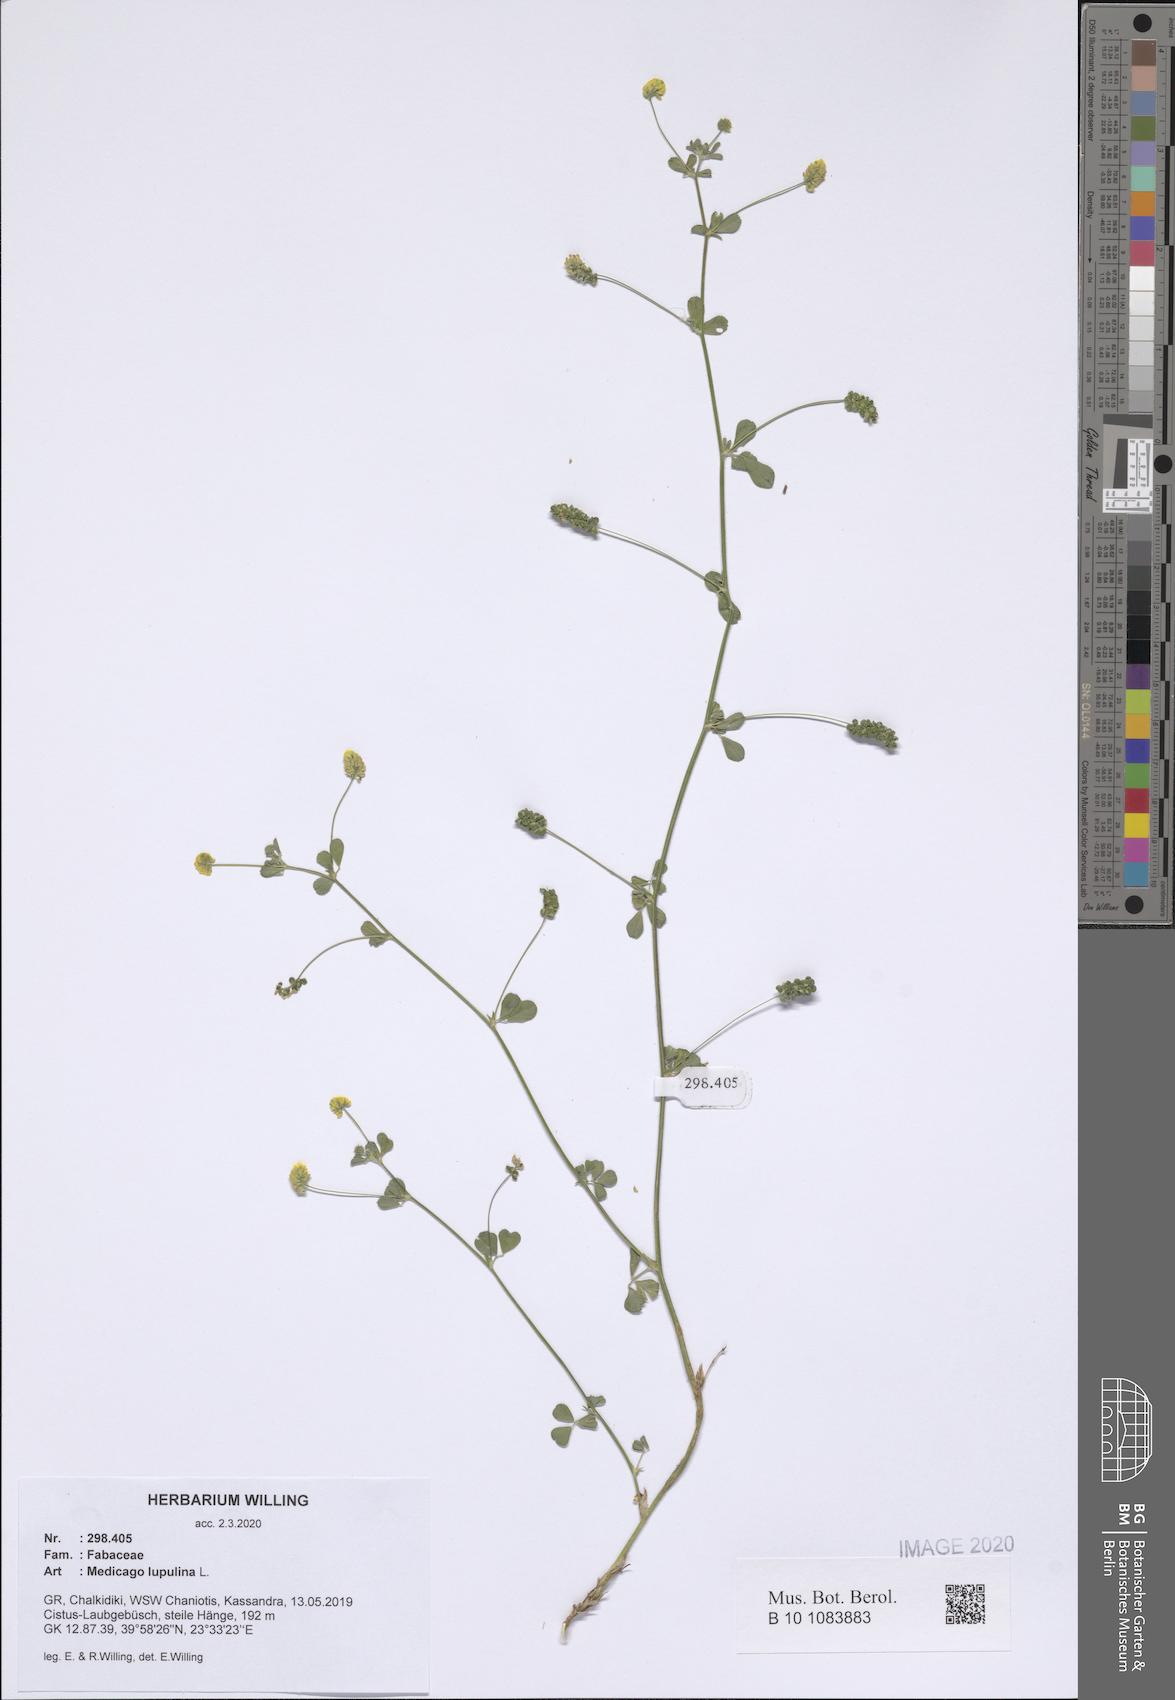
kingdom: Plantae
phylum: Tracheophyta
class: Magnoliopsida
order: Fabales
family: Fabaceae
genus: Medicago
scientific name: Medicago lupulina
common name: Black medick
